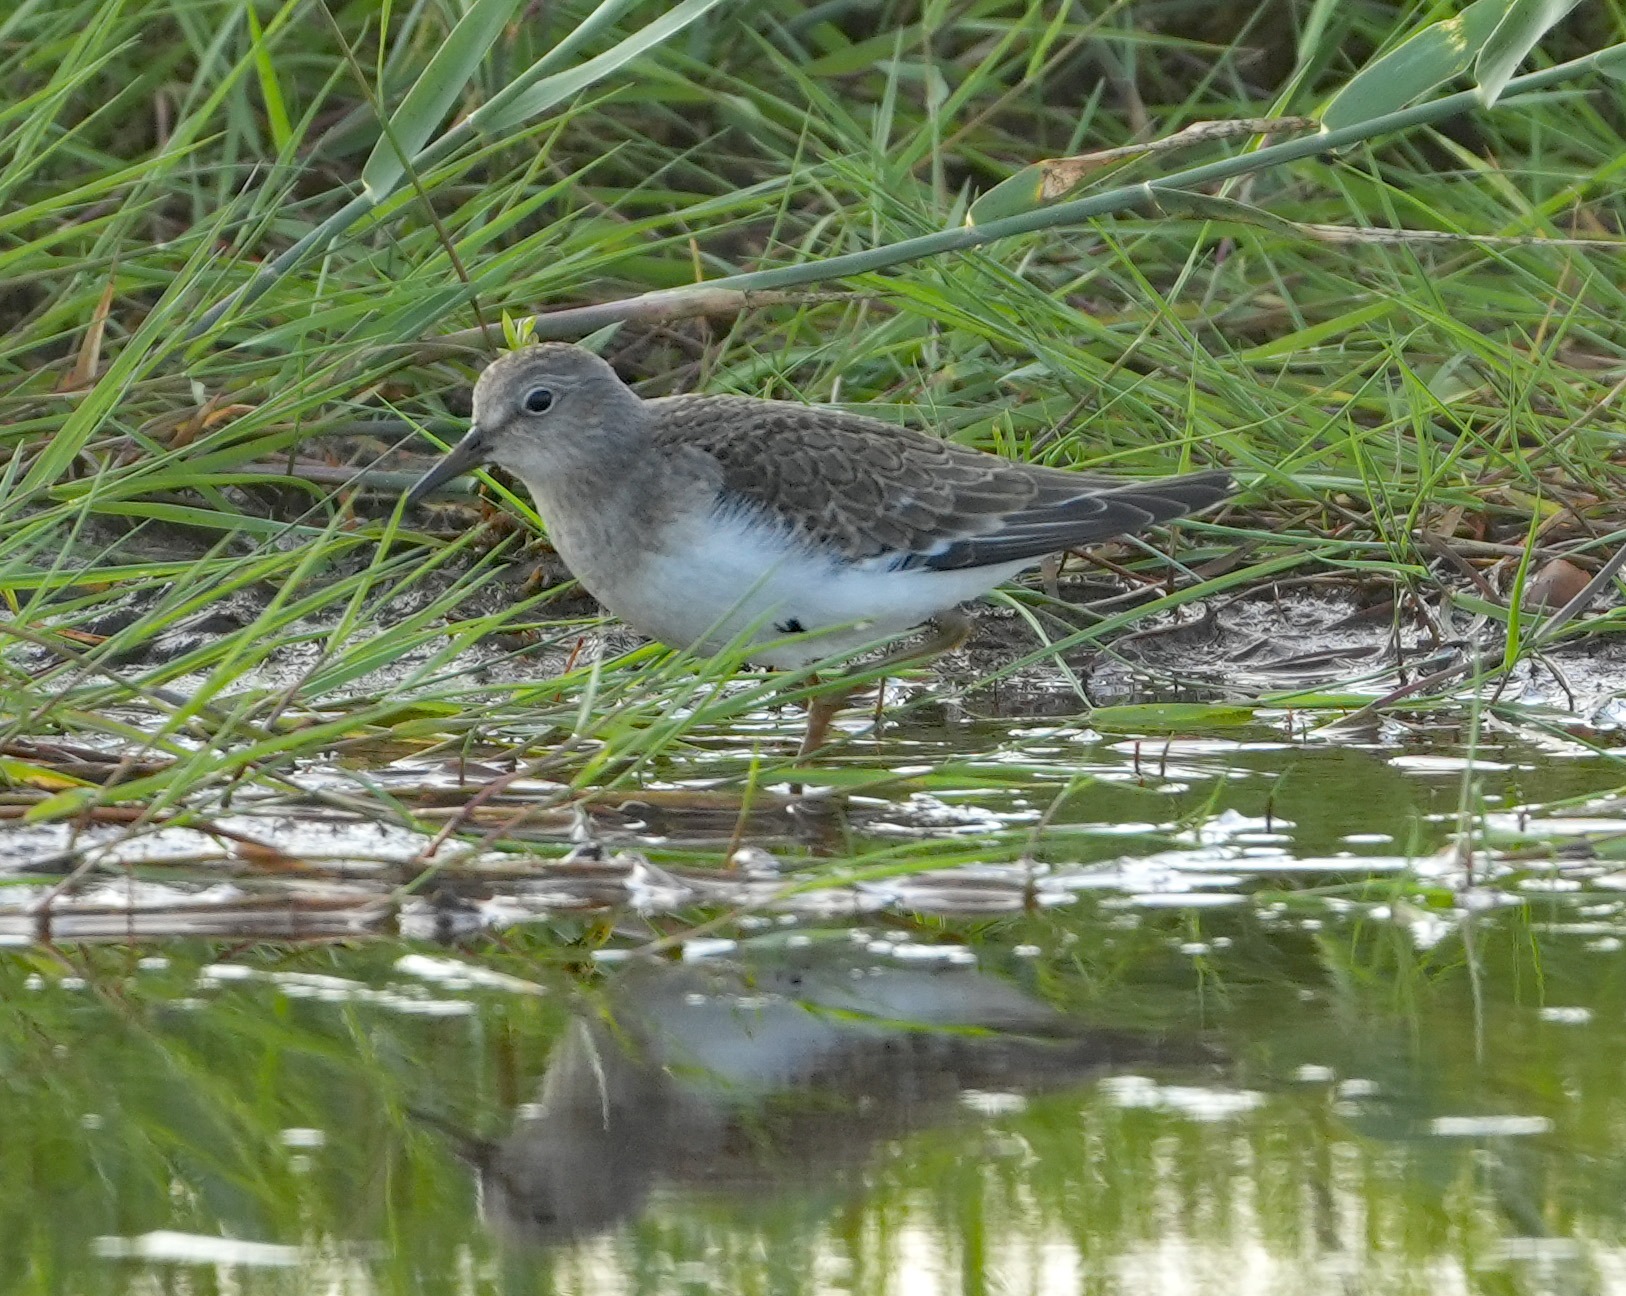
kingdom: Animalia
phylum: Chordata
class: Aves
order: Charadriiformes
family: Scolopacidae
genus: Calidris
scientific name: Calidris temminckii
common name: Temmincksryle
